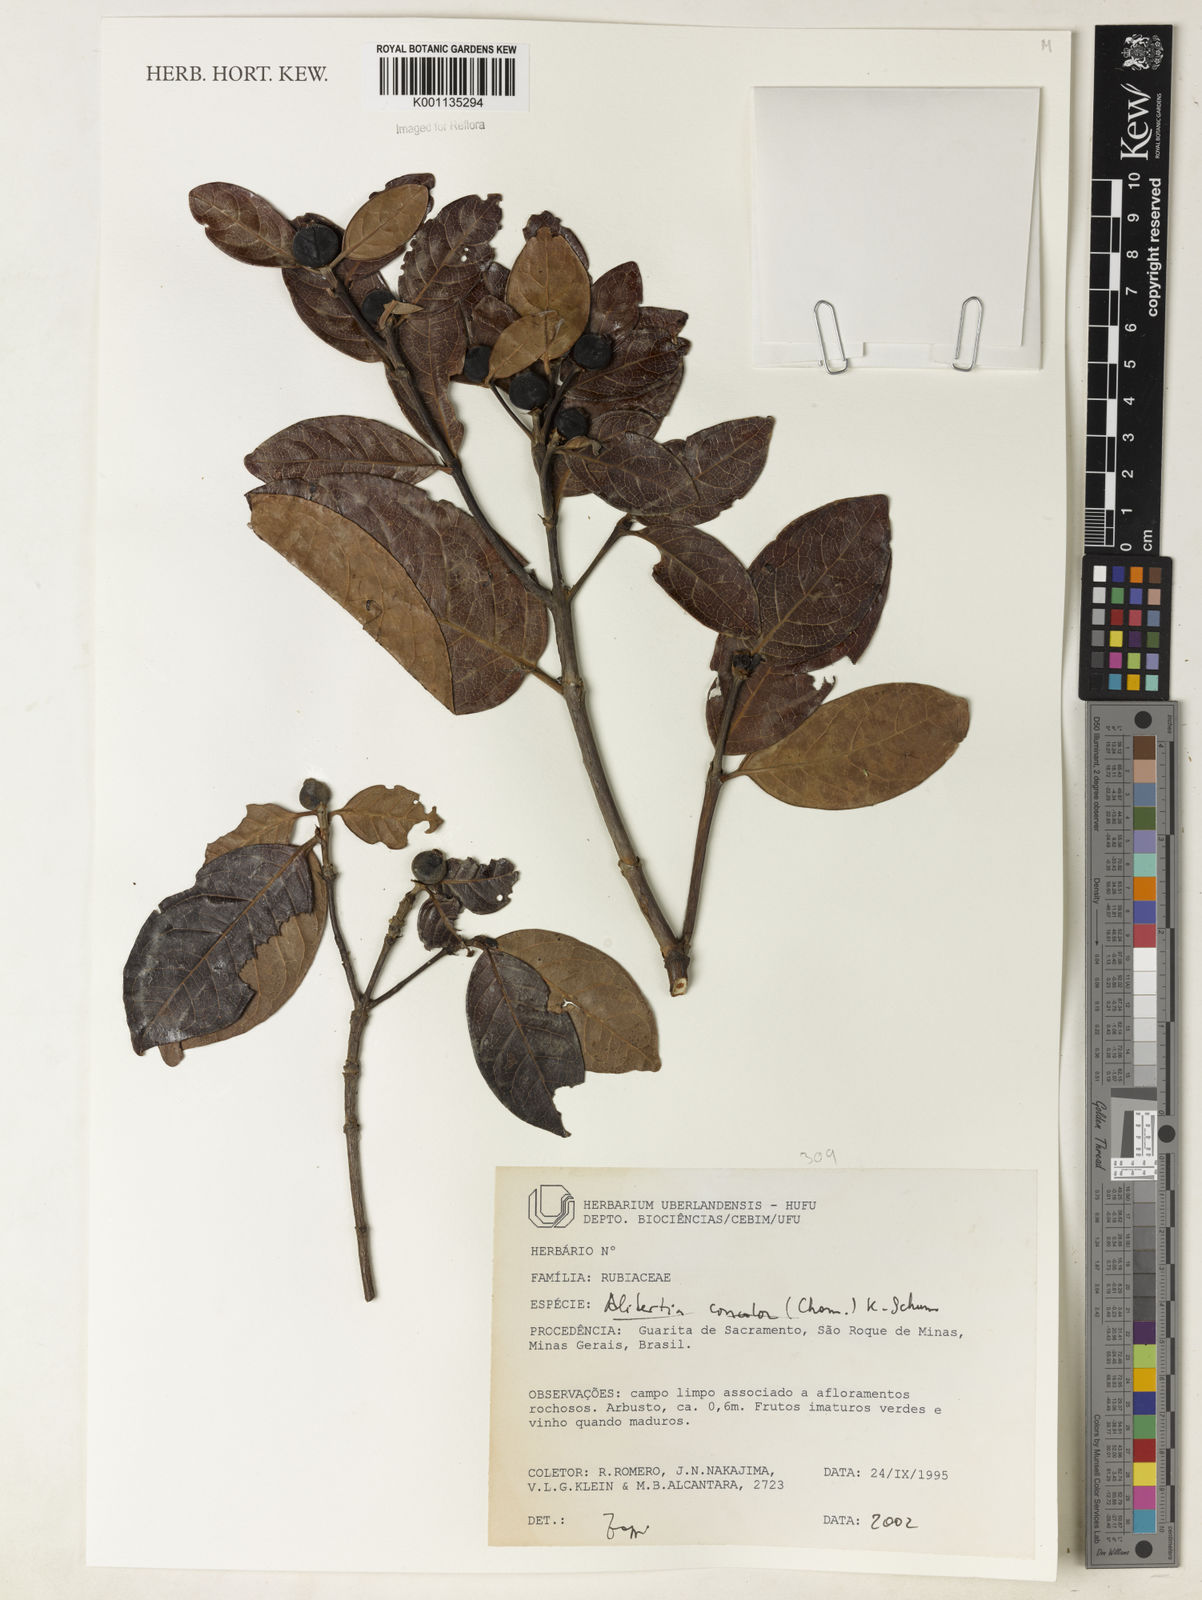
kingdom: Plantae
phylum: Tracheophyta
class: Magnoliopsida
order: Gentianales
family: Rubiaceae
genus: Cordiera
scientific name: Cordiera concolor
